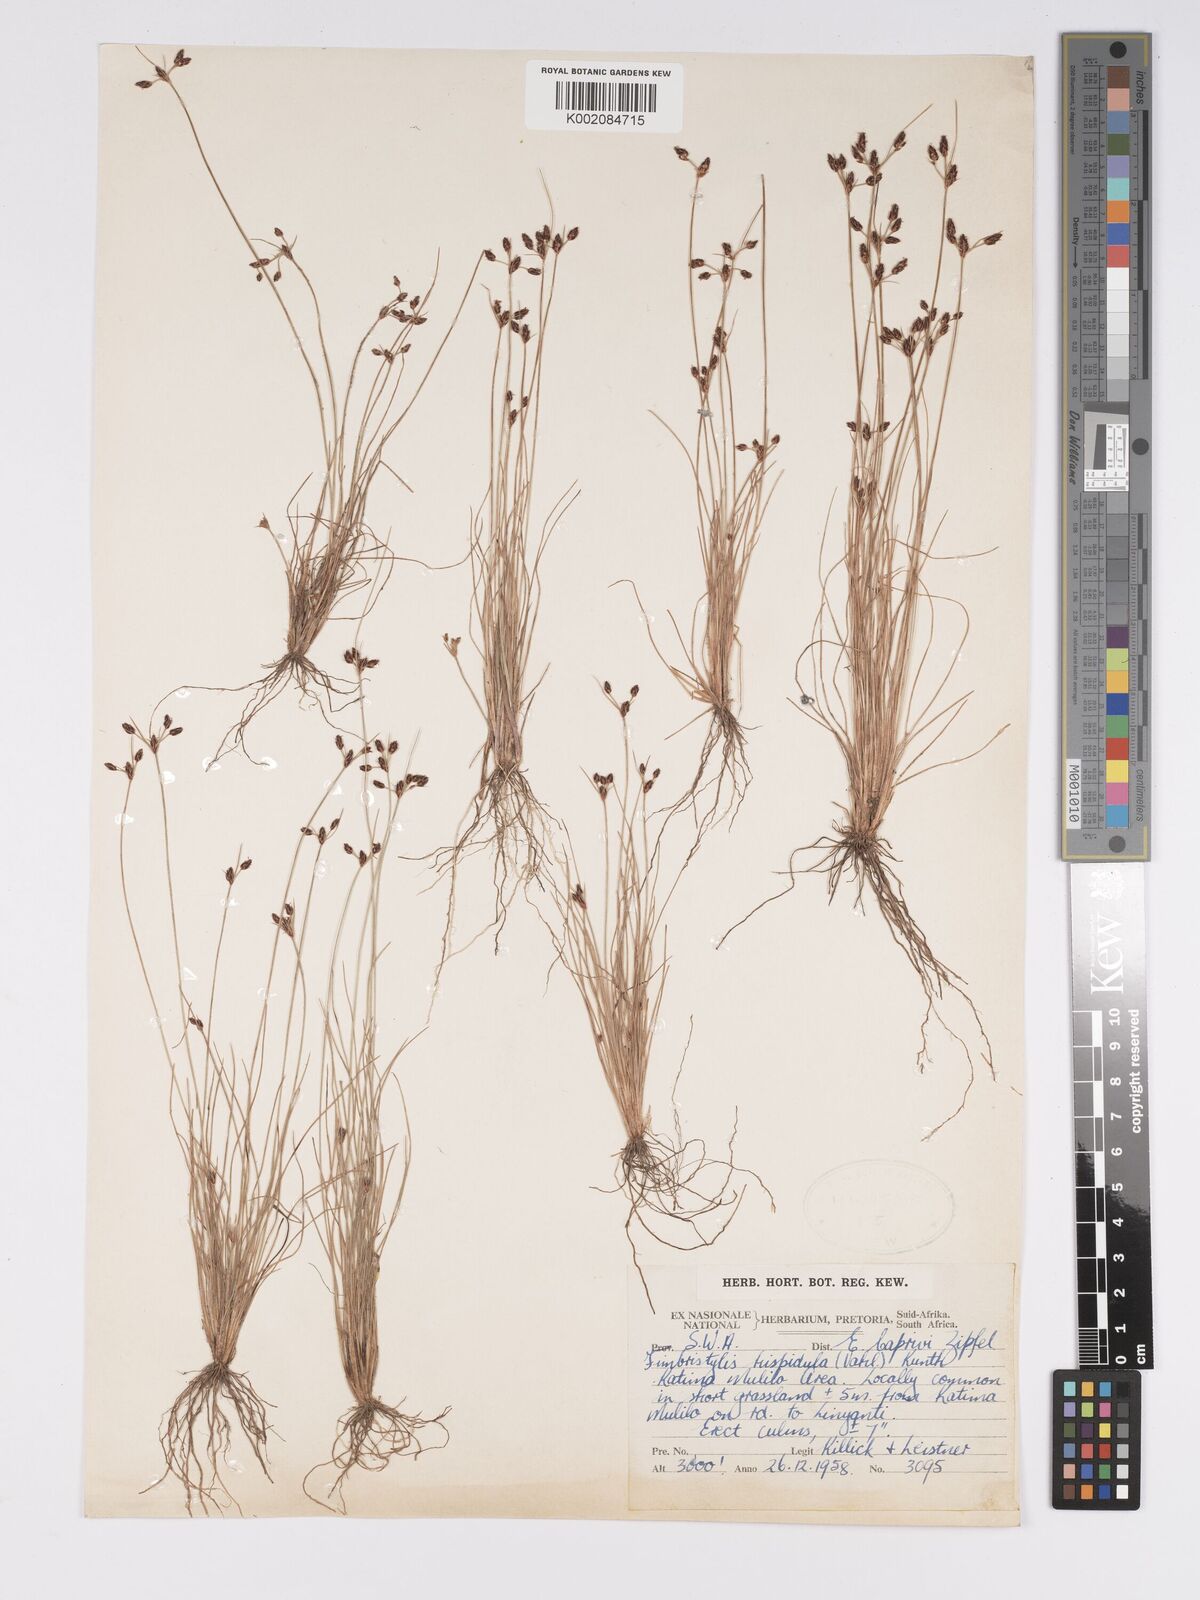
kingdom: Plantae
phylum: Tracheophyta
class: Liliopsida
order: Poales
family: Cyperaceae
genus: Bulbostylis
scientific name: Bulbostylis hispidula
